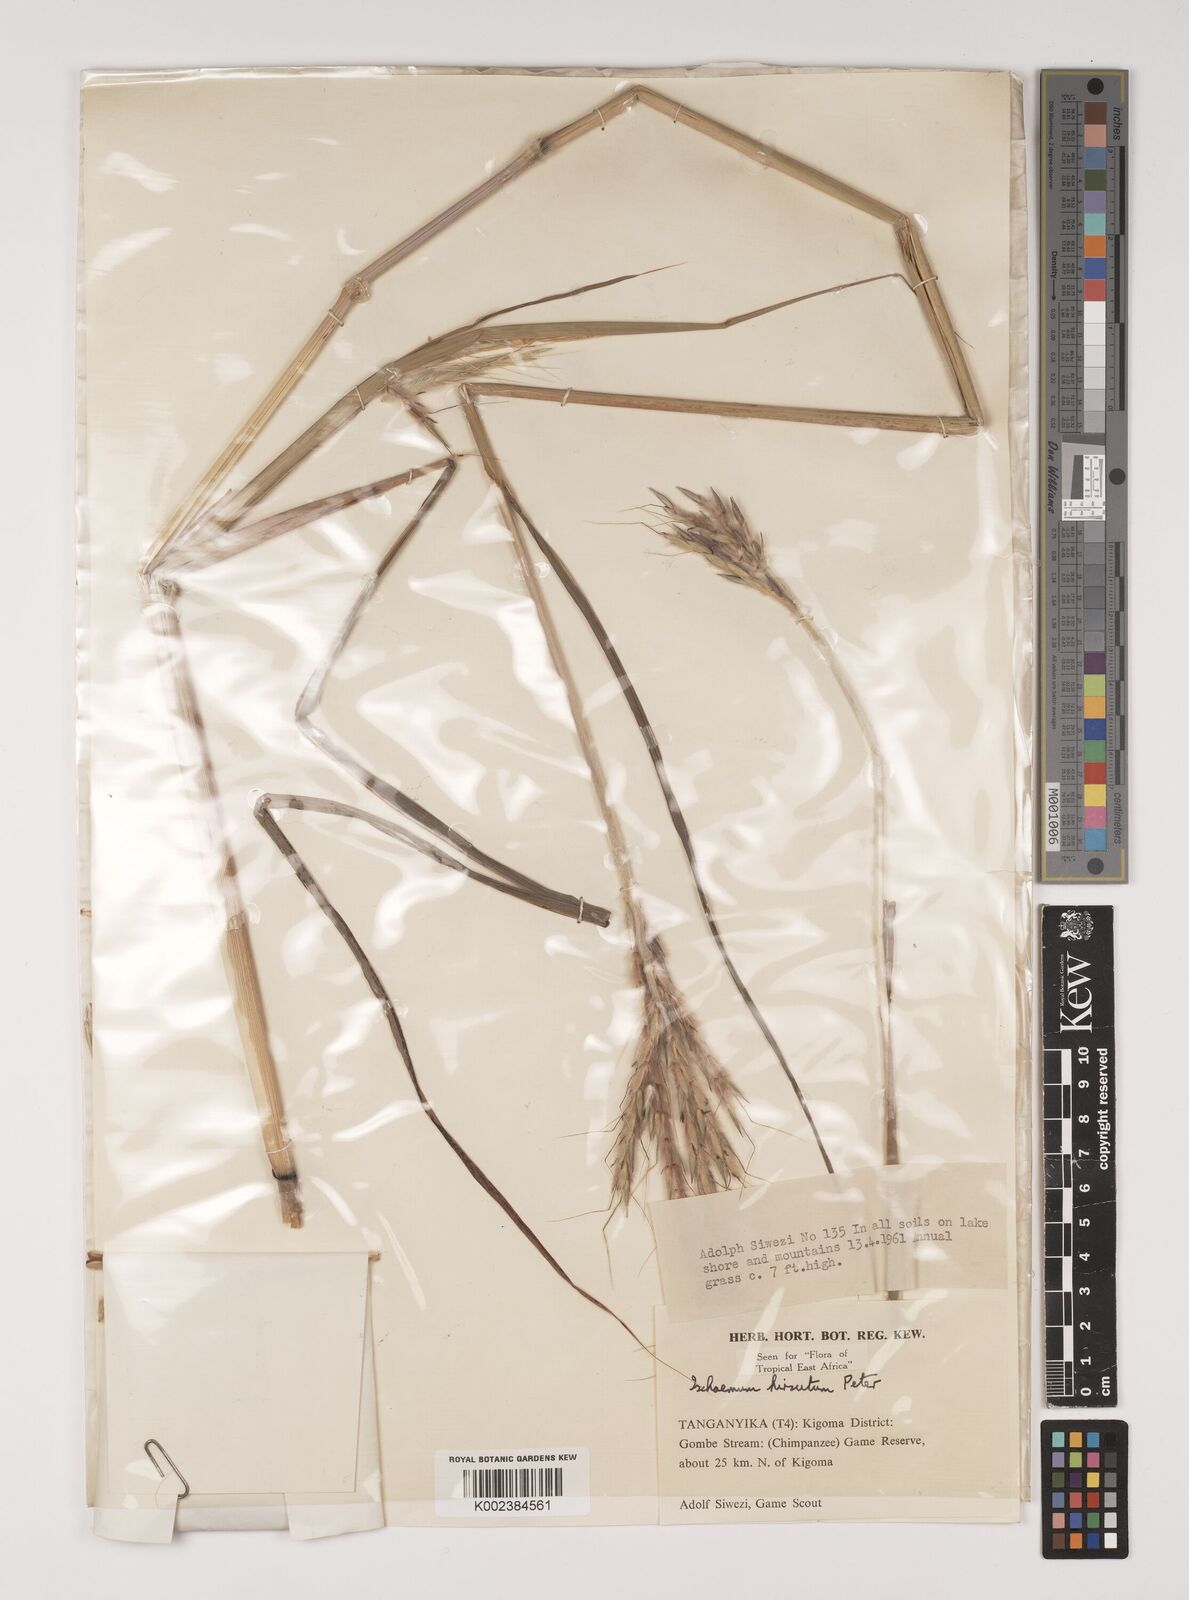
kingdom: Plantae
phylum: Tracheophyta
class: Liliopsida
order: Poales
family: Poaceae
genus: Ischaemum
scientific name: Ischaemum amethystinum
